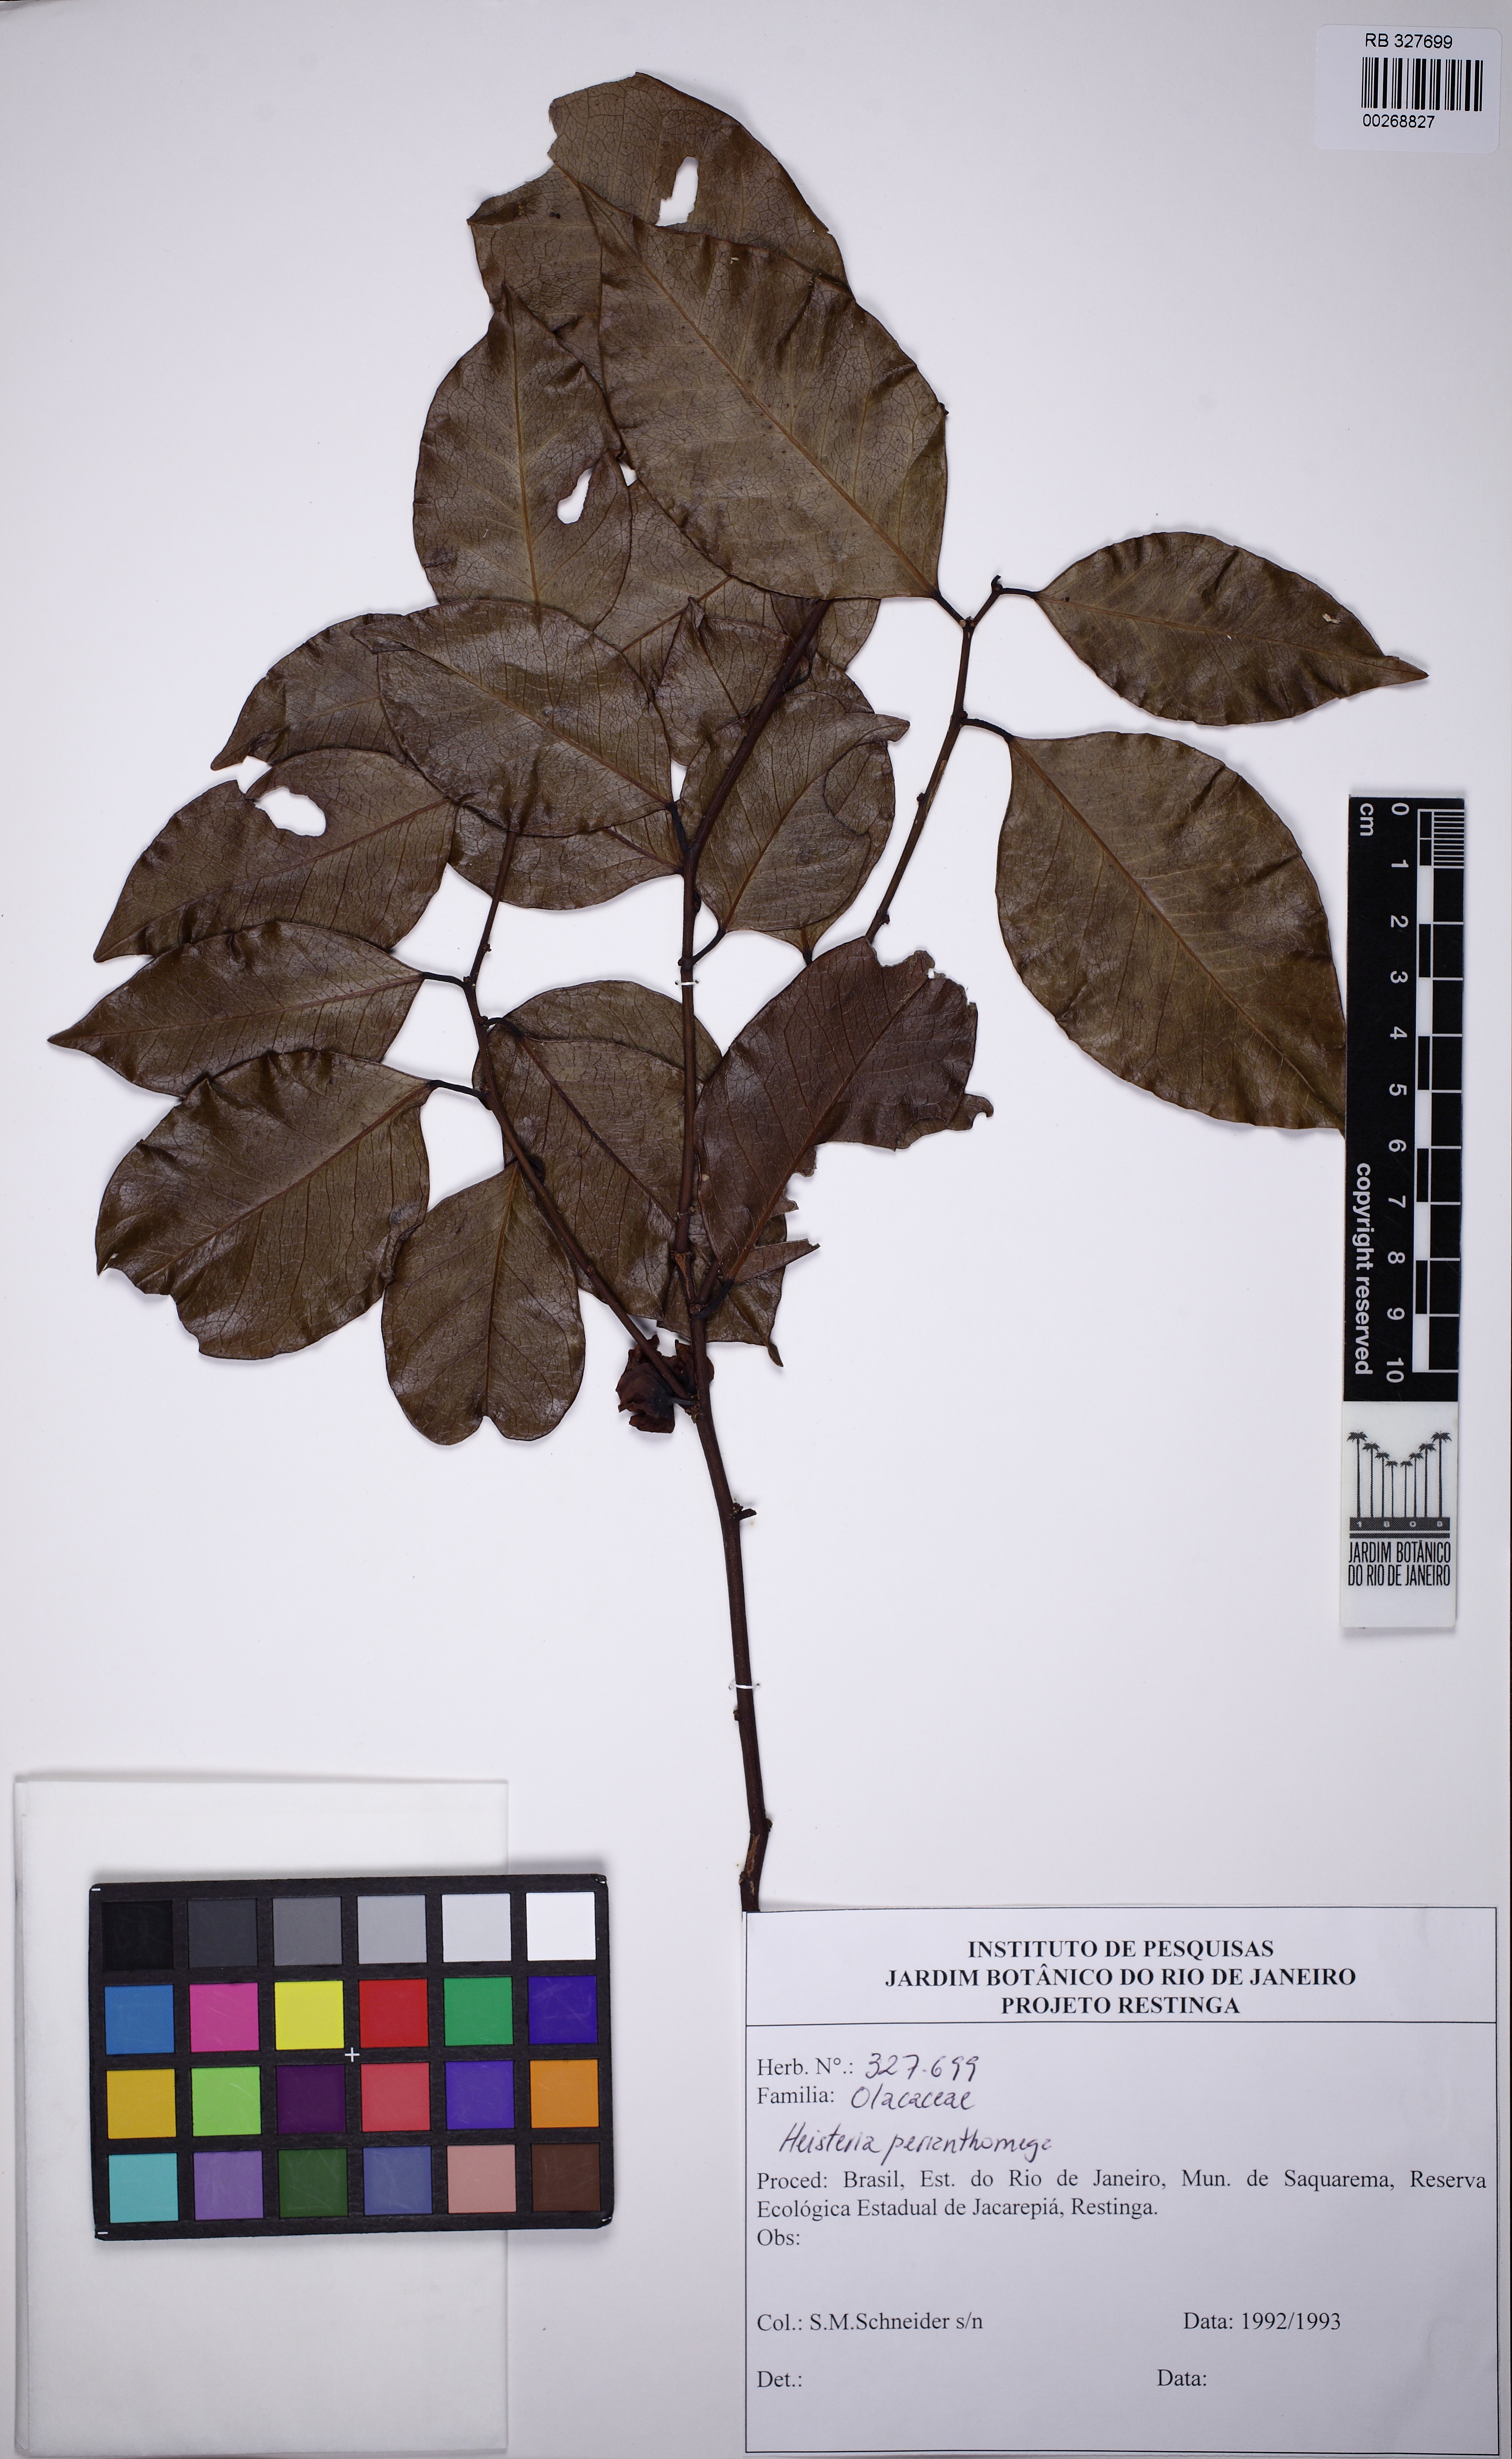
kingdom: Plantae
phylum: Tracheophyta
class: Magnoliopsida
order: Santalales
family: Erythropalaceae
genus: Heisteria
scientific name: Heisteria perianthomega
